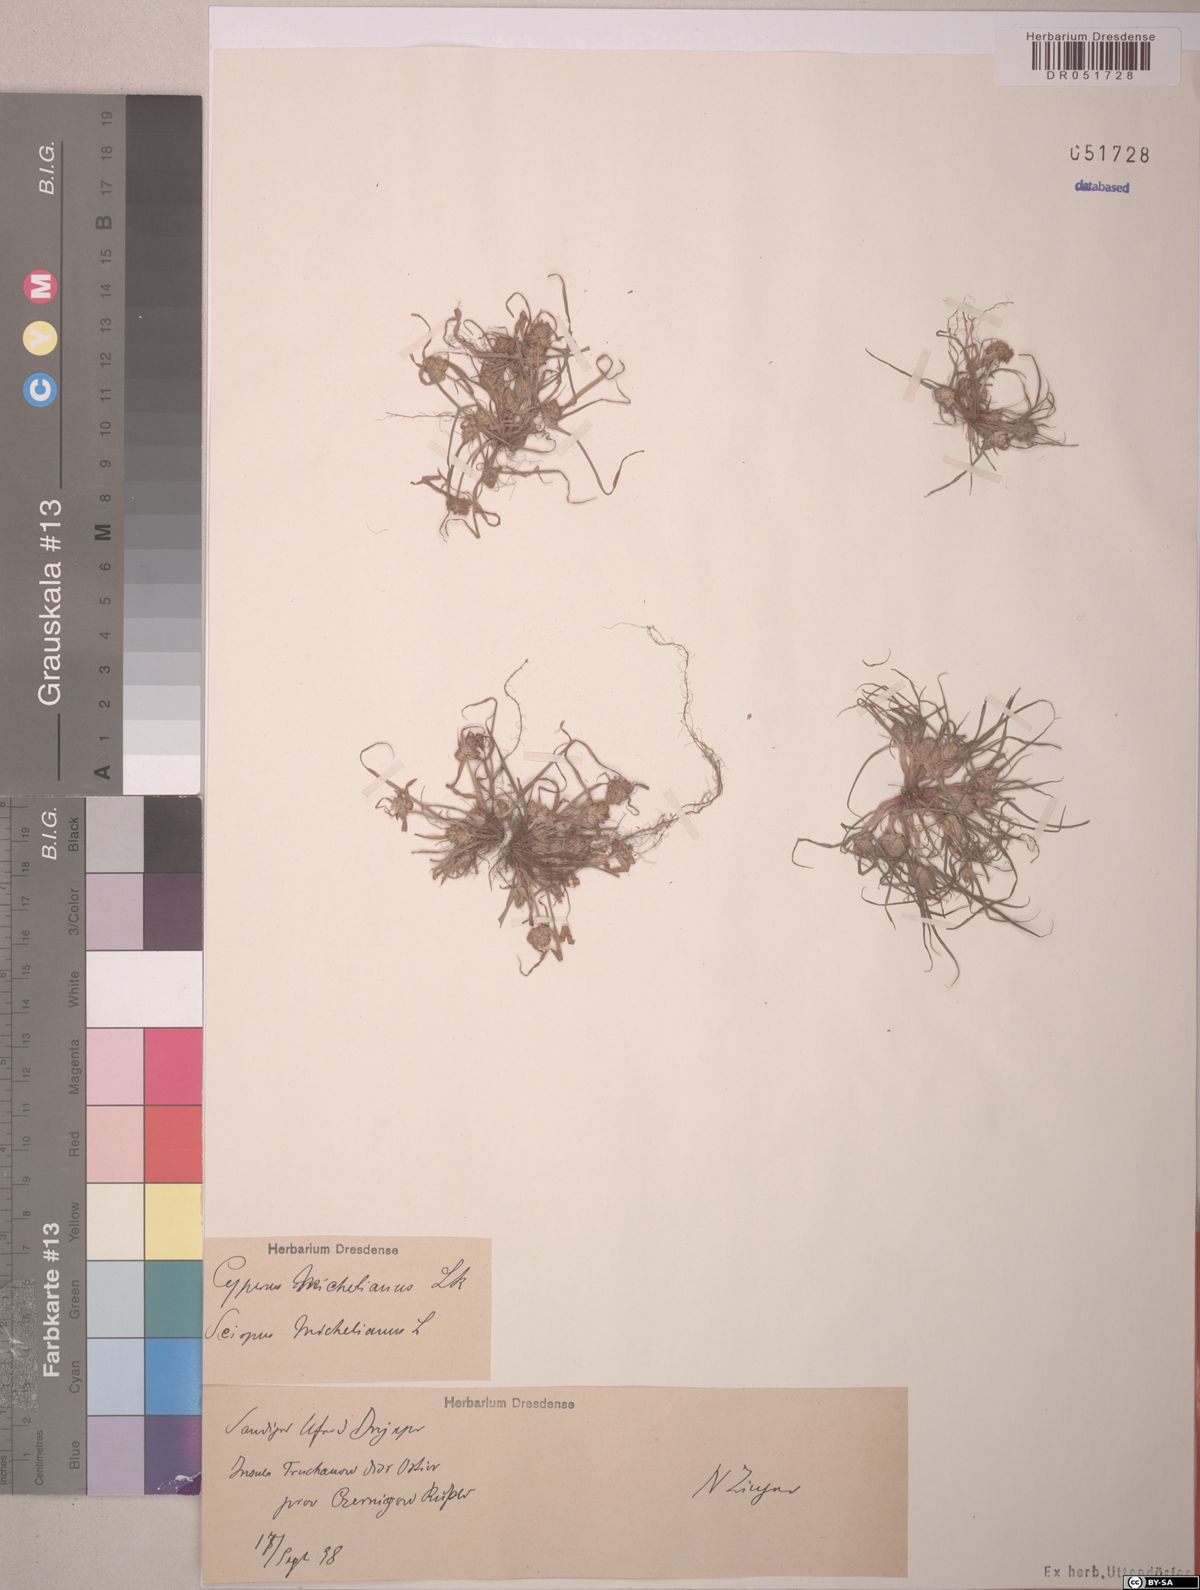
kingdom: Plantae
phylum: Tracheophyta
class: Liliopsida
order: Poales
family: Cyperaceae
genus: Cyperus
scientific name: Cyperus michelianus
